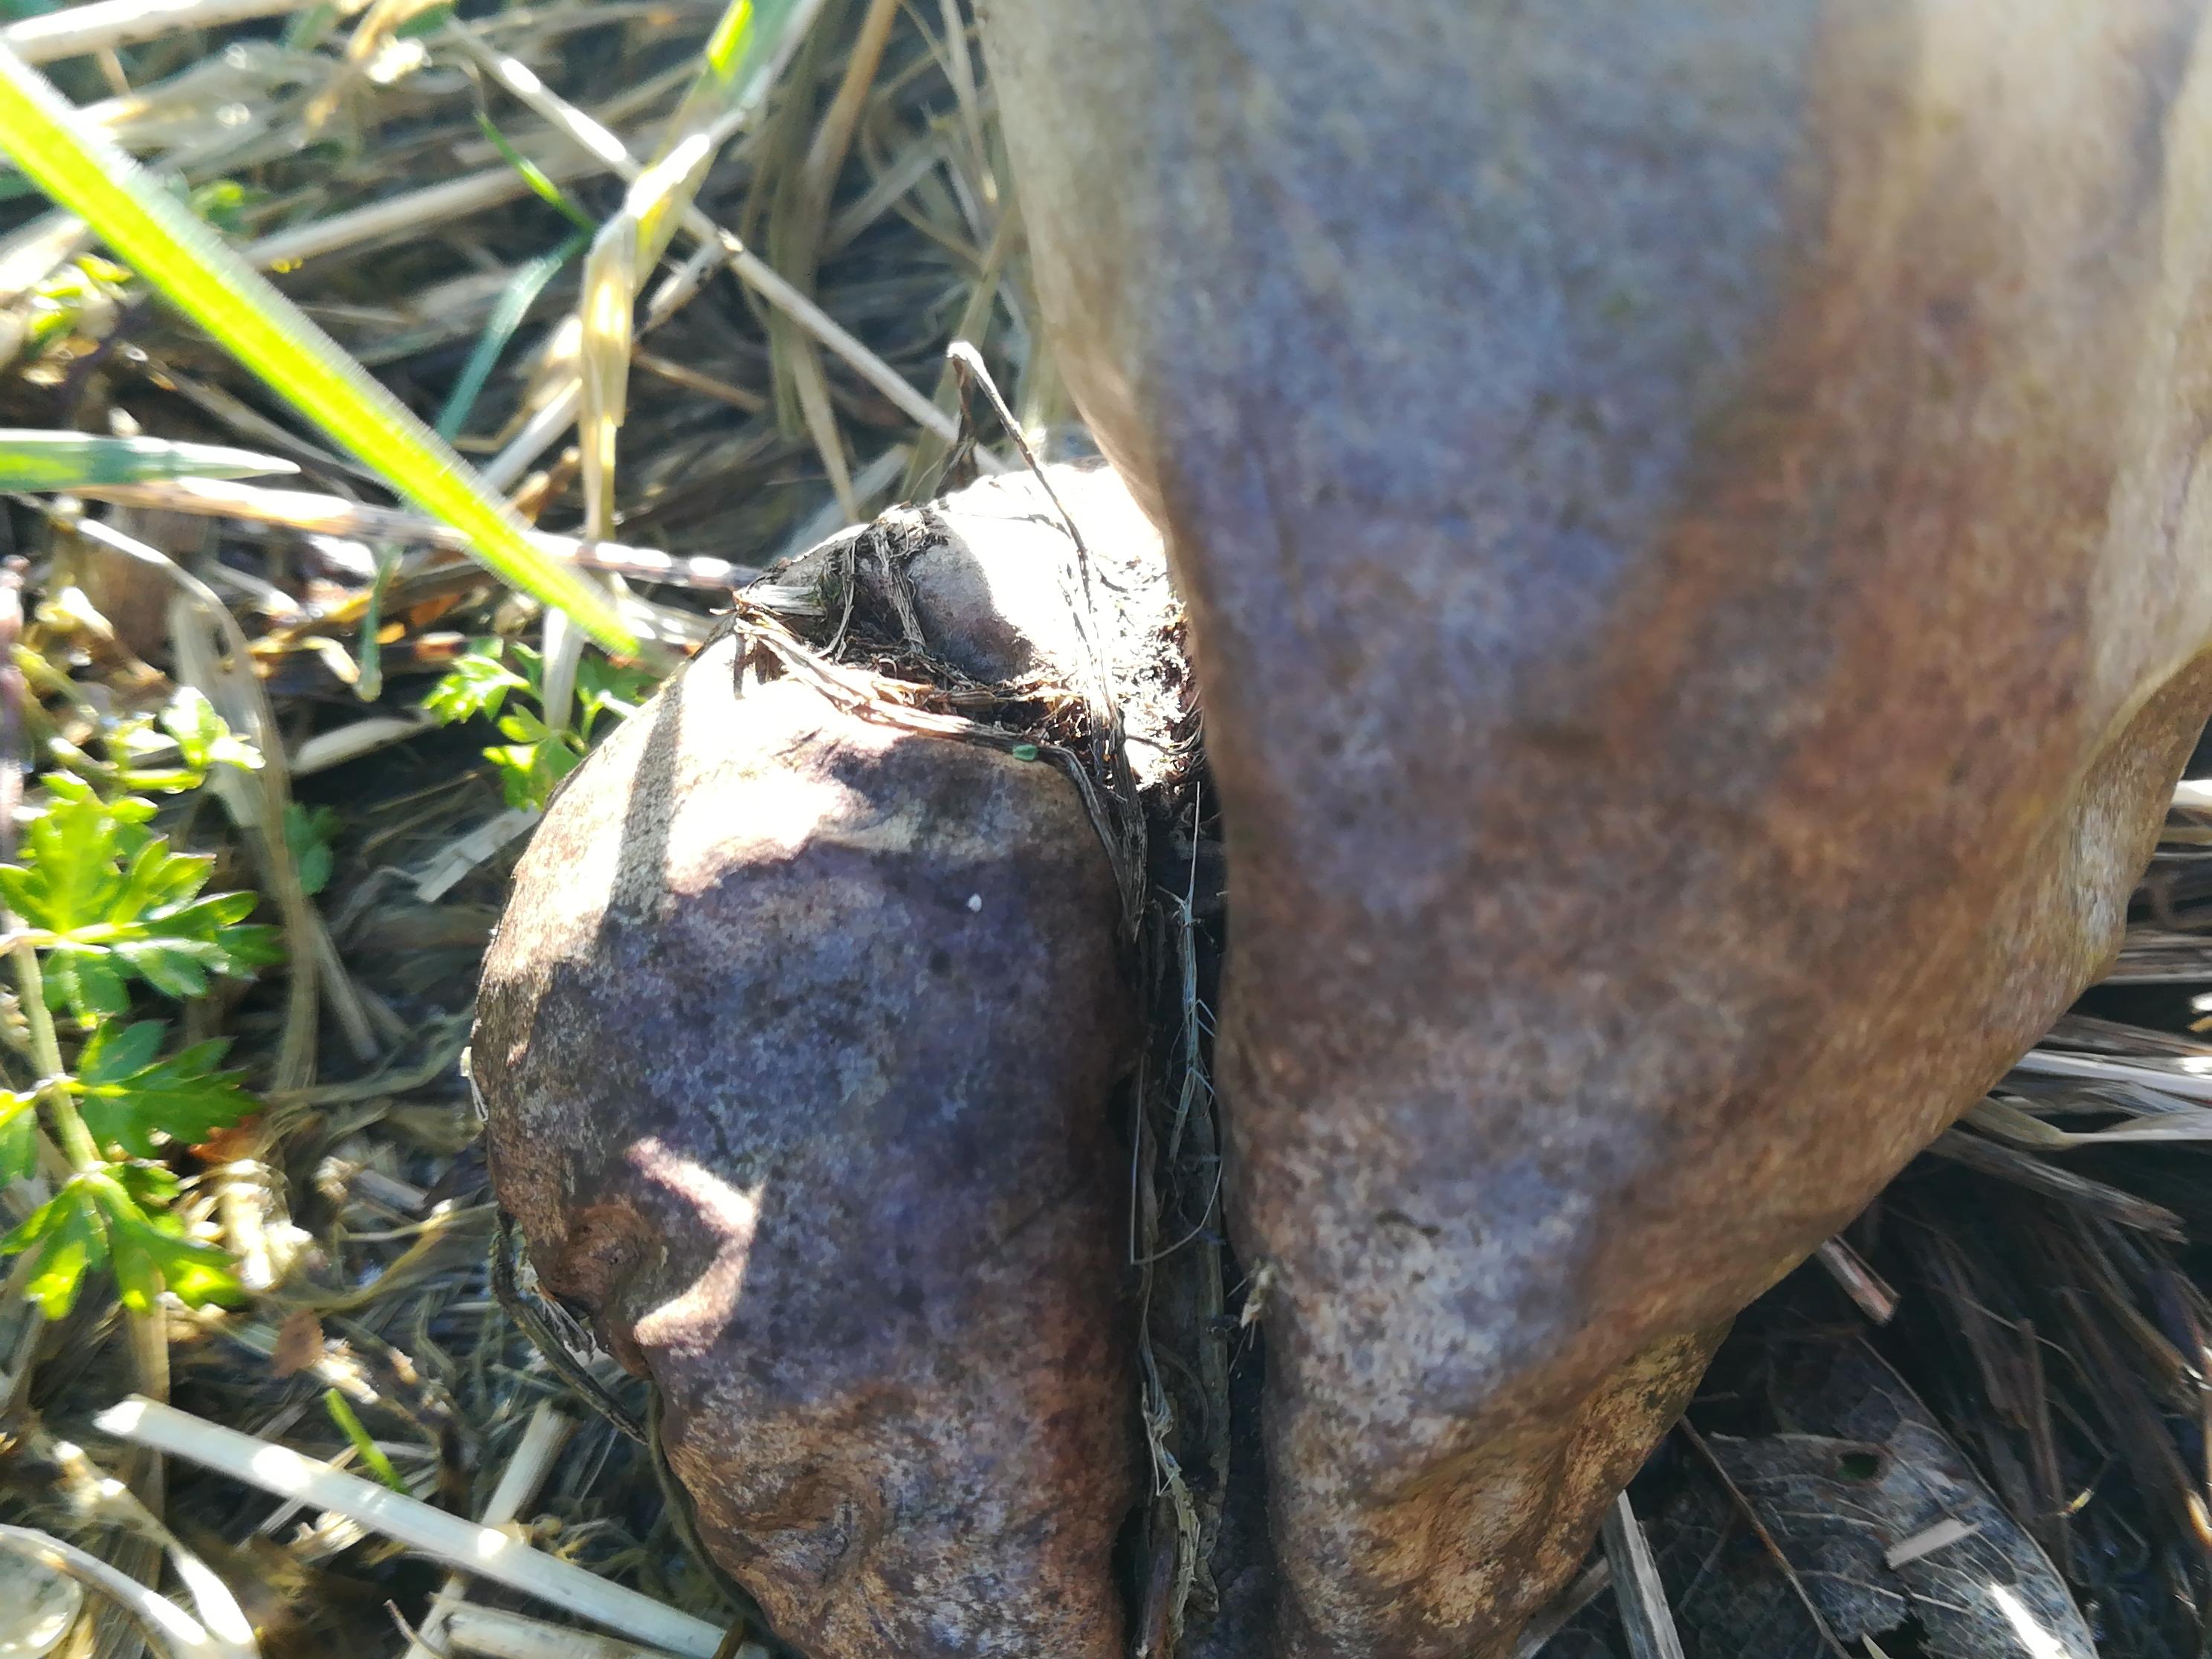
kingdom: Fungi
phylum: Basidiomycota
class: Agaricomycetes
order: Agaricales
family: Lycoperdaceae
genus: Lycoperdon
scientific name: Lycoperdon excipuliforme
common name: højstokket støvbold
